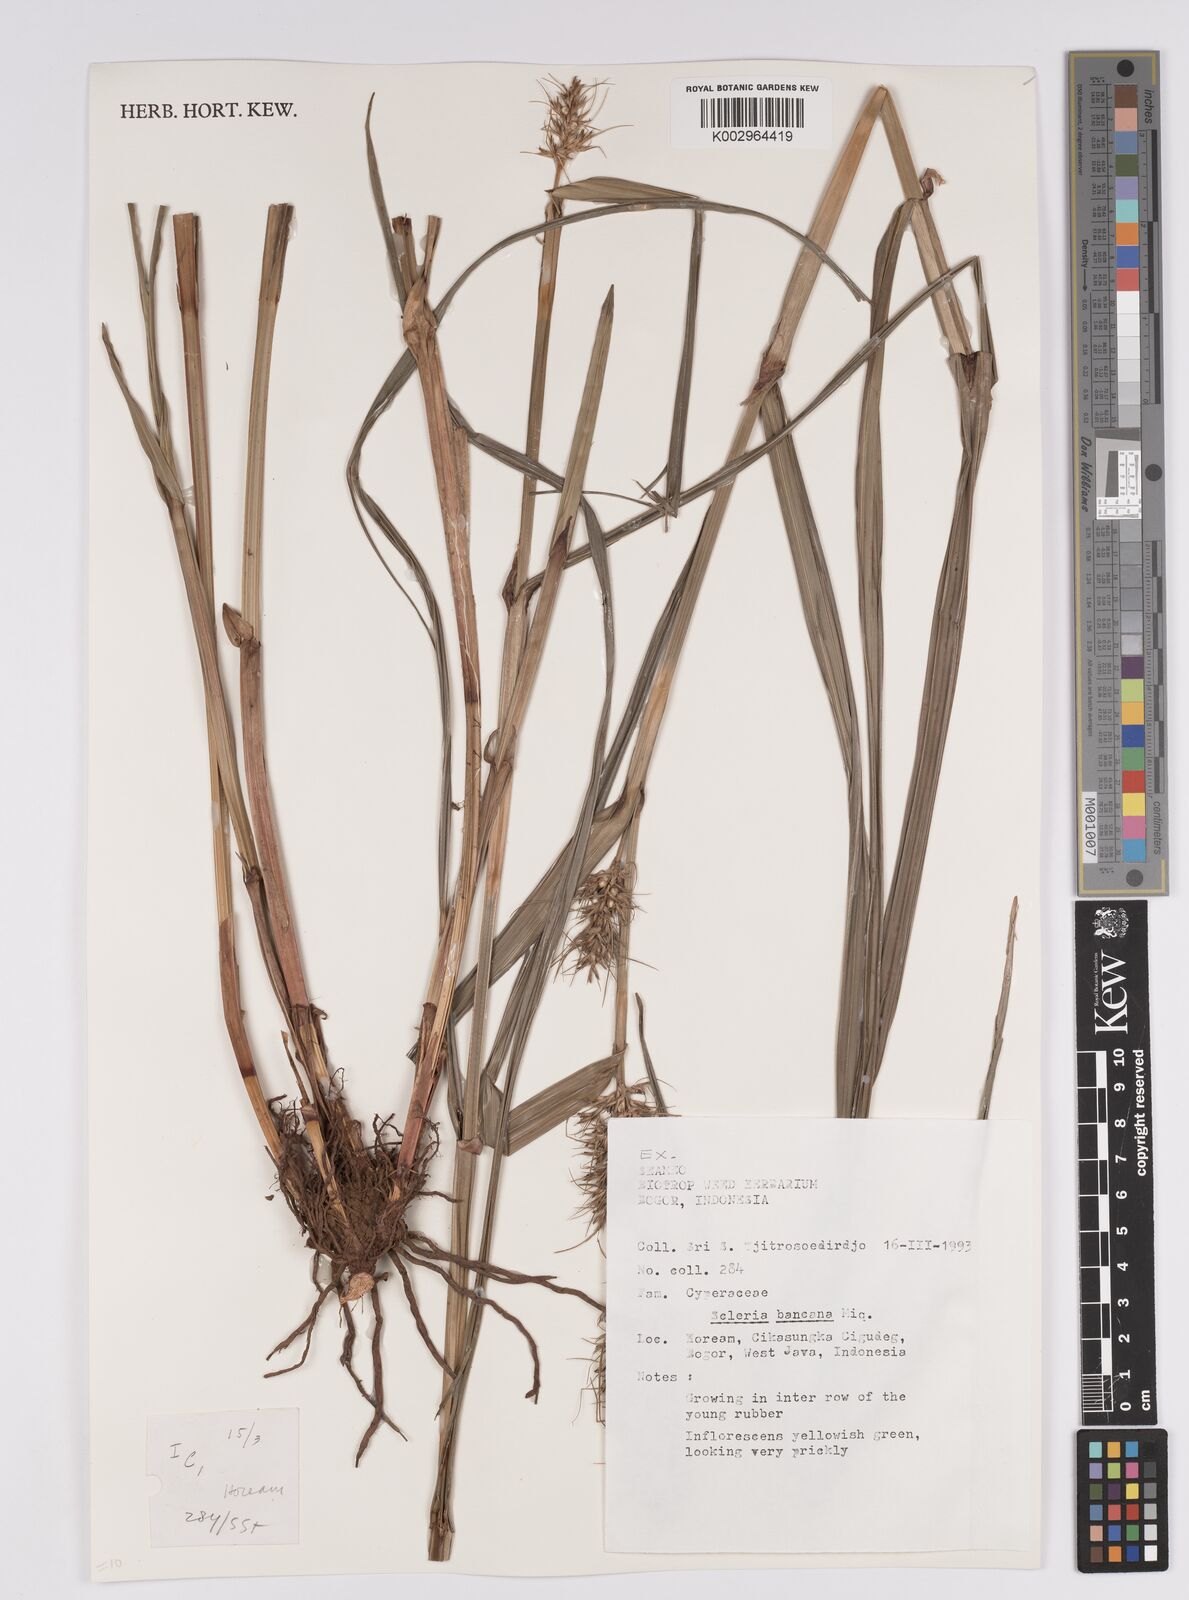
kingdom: Plantae
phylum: Tracheophyta
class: Liliopsida
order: Poales
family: Cyperaceae
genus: Scleria
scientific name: Scleria ciliaris
